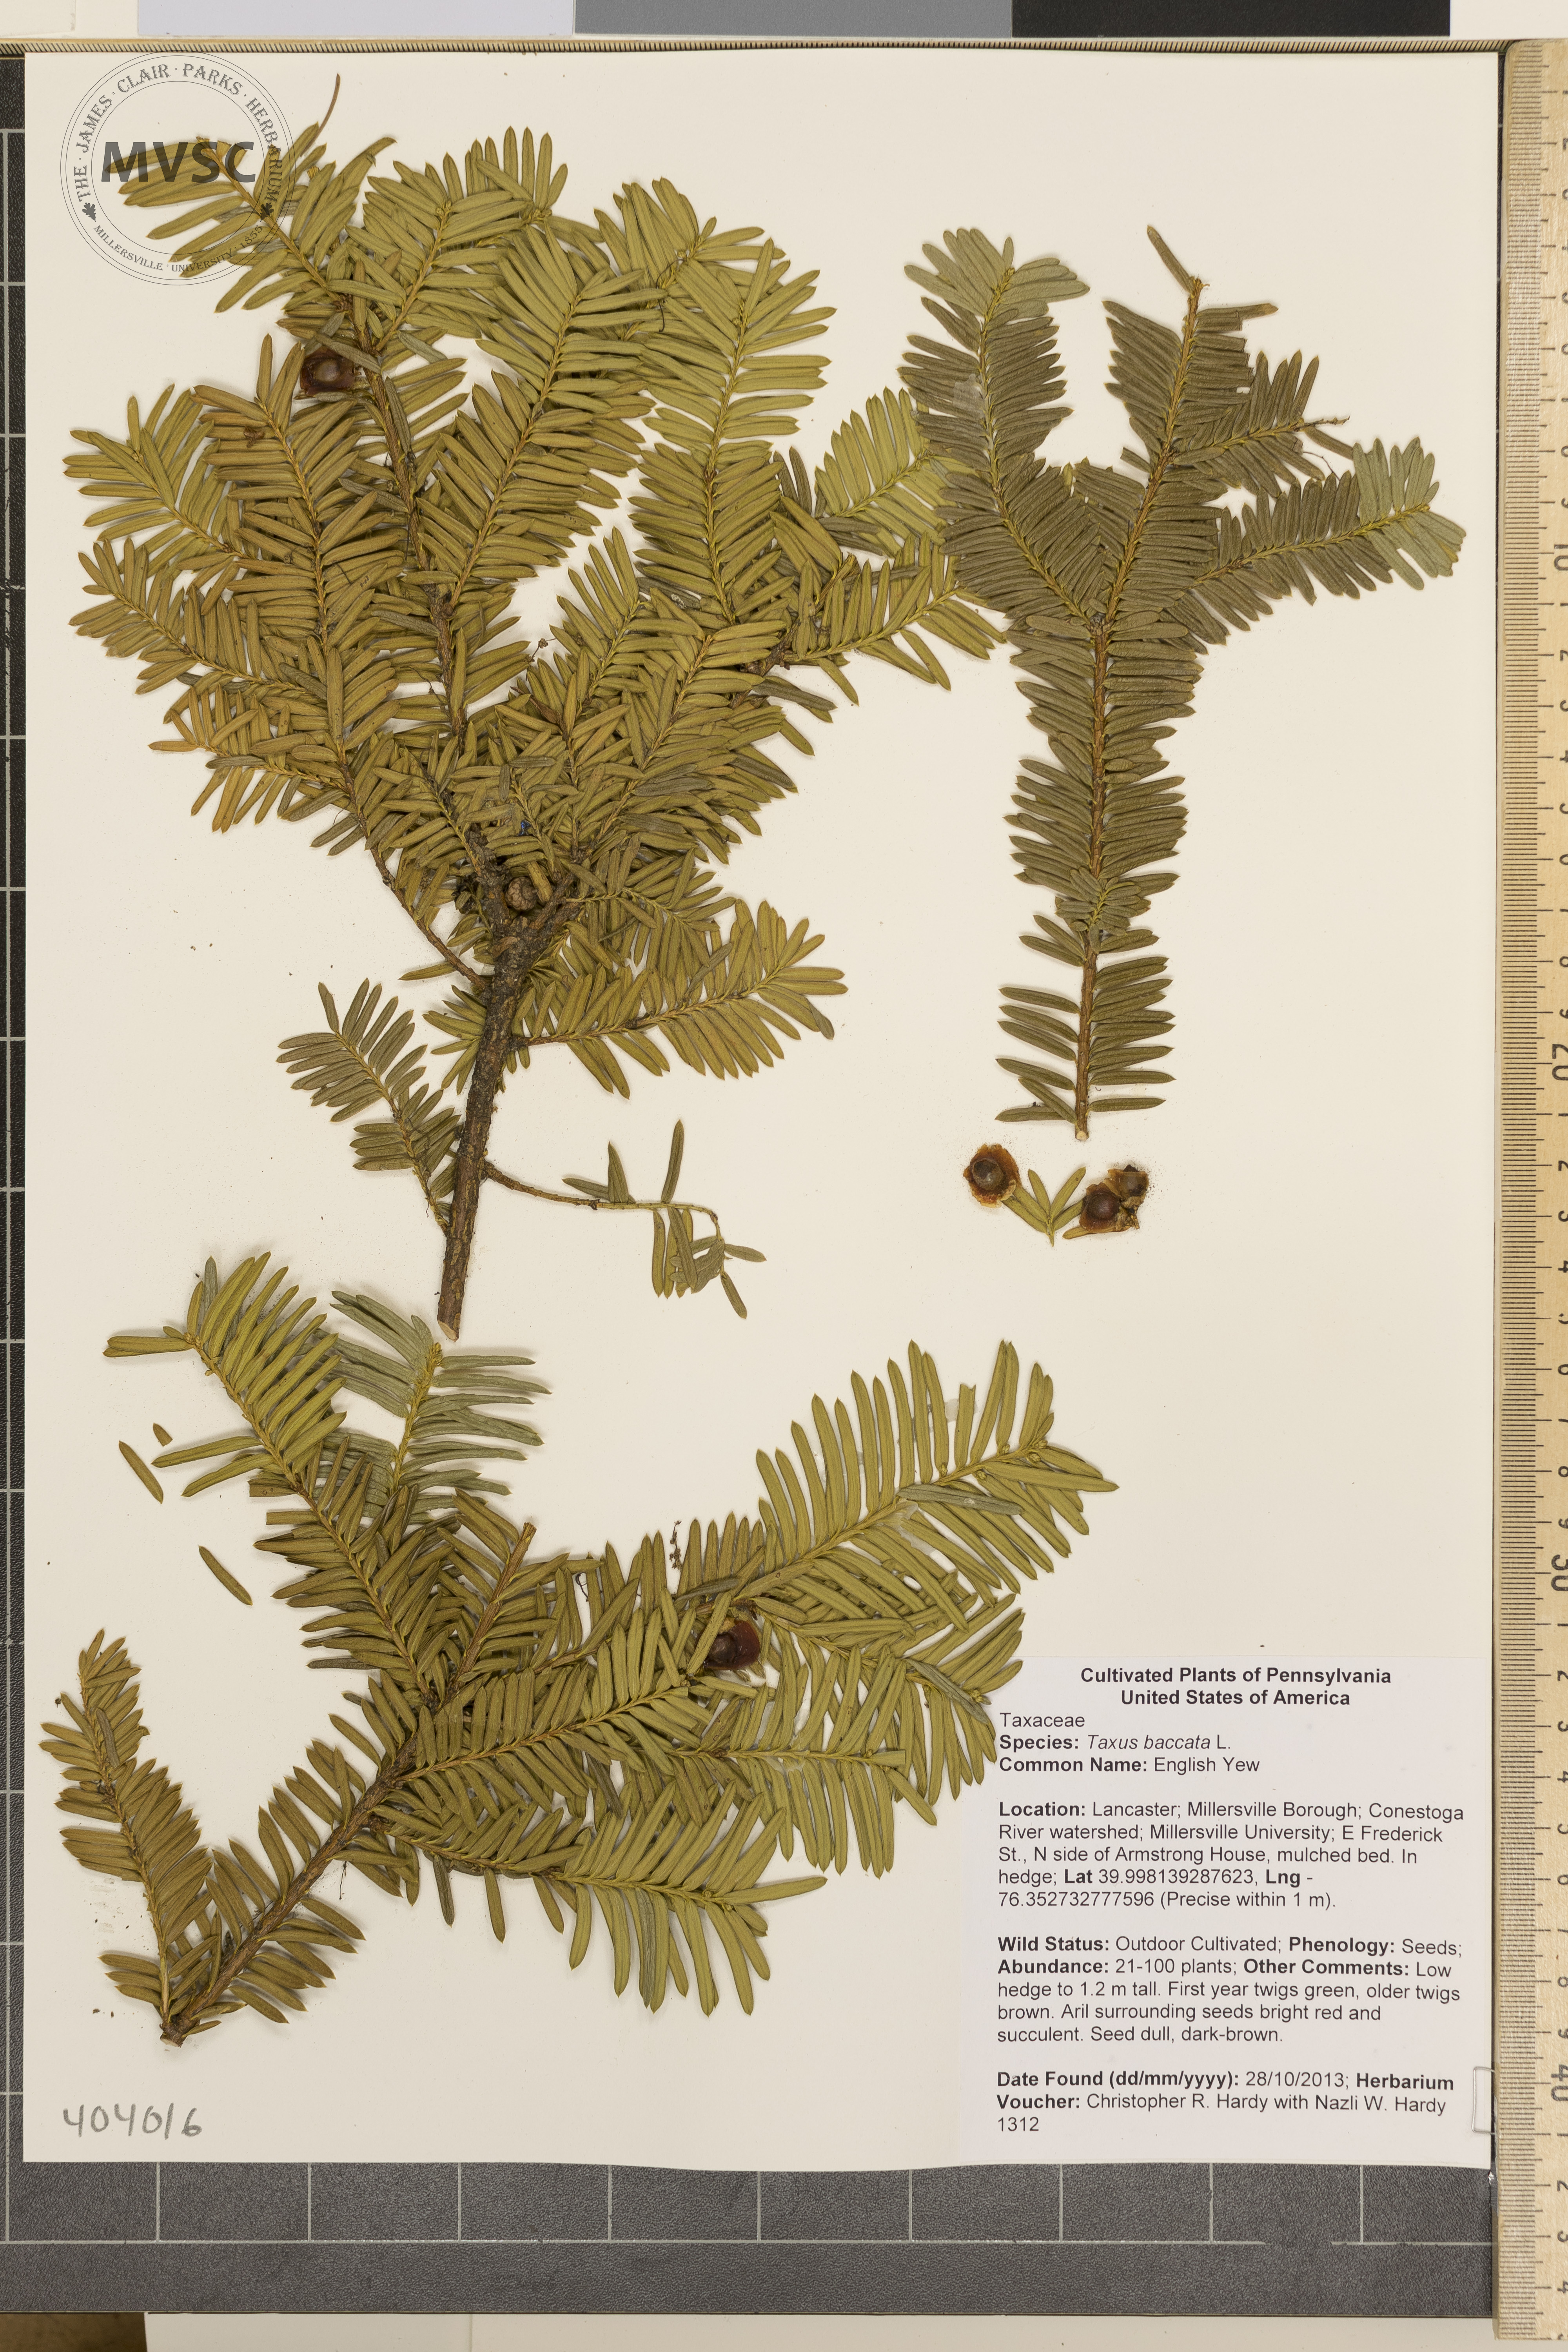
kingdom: Plantae
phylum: Tracheophyta
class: Pinopsida
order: Pinales
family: Taxaceae
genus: Taxus
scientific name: Taxus baccata
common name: English Yew
